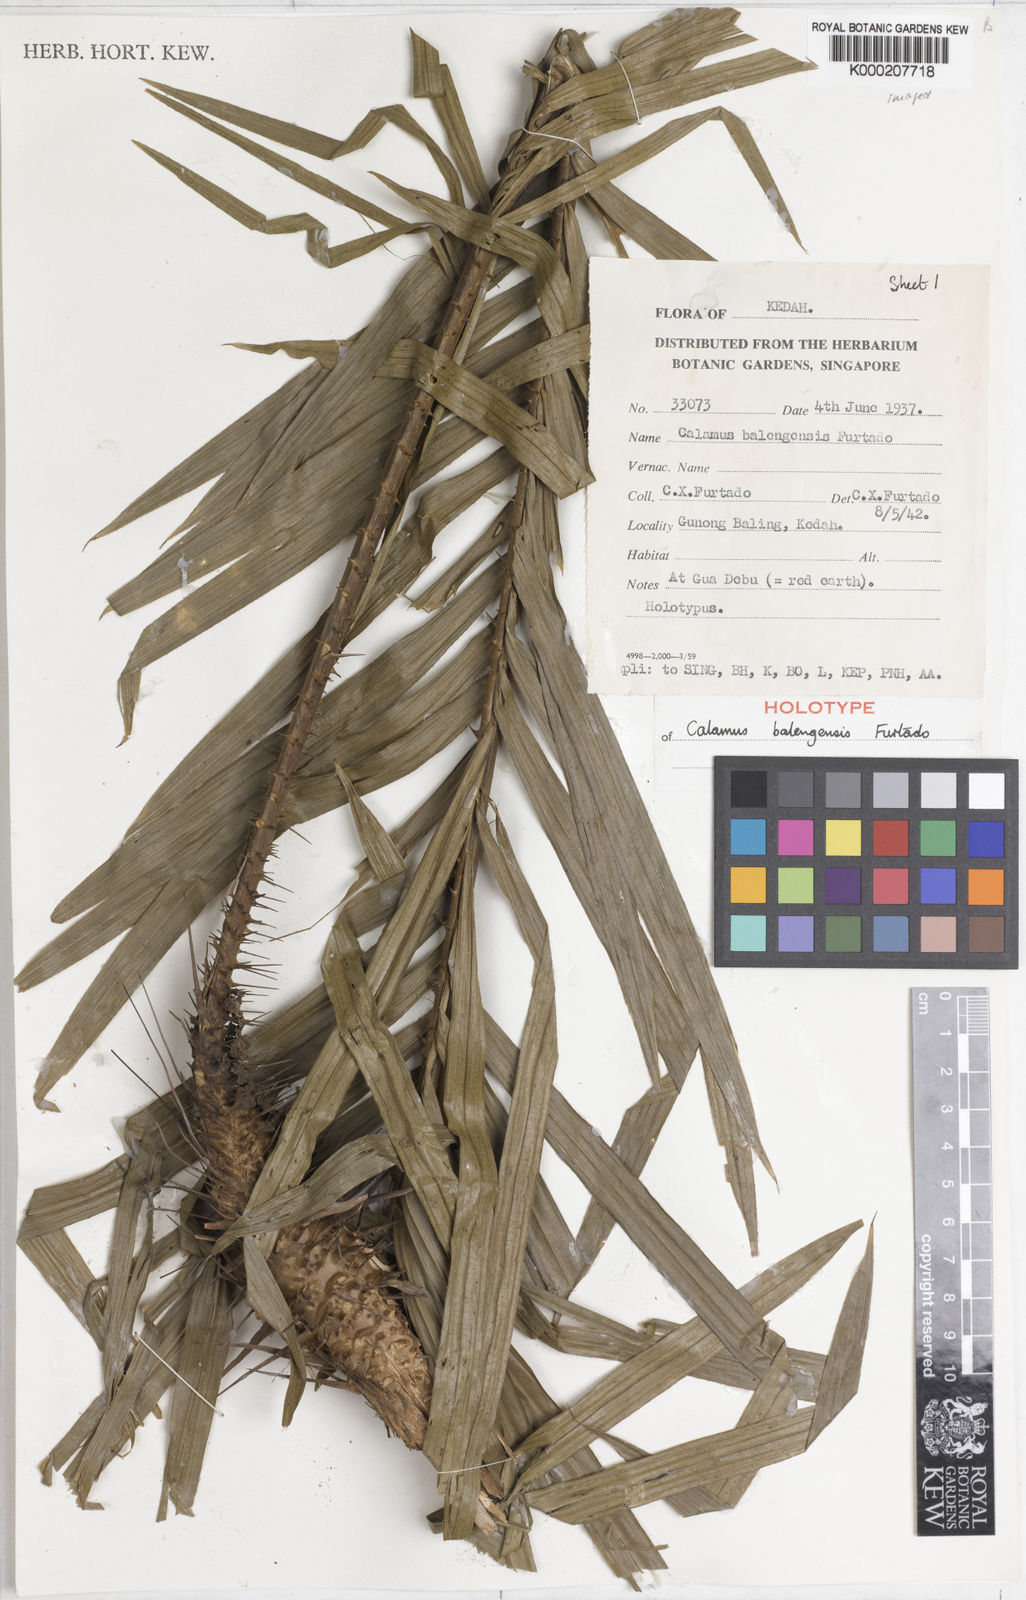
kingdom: Plantae
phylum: Tracheophyta
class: Liliopsida
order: Arecales
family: Arecaceae
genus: Calamus
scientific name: Calamus balingensis
